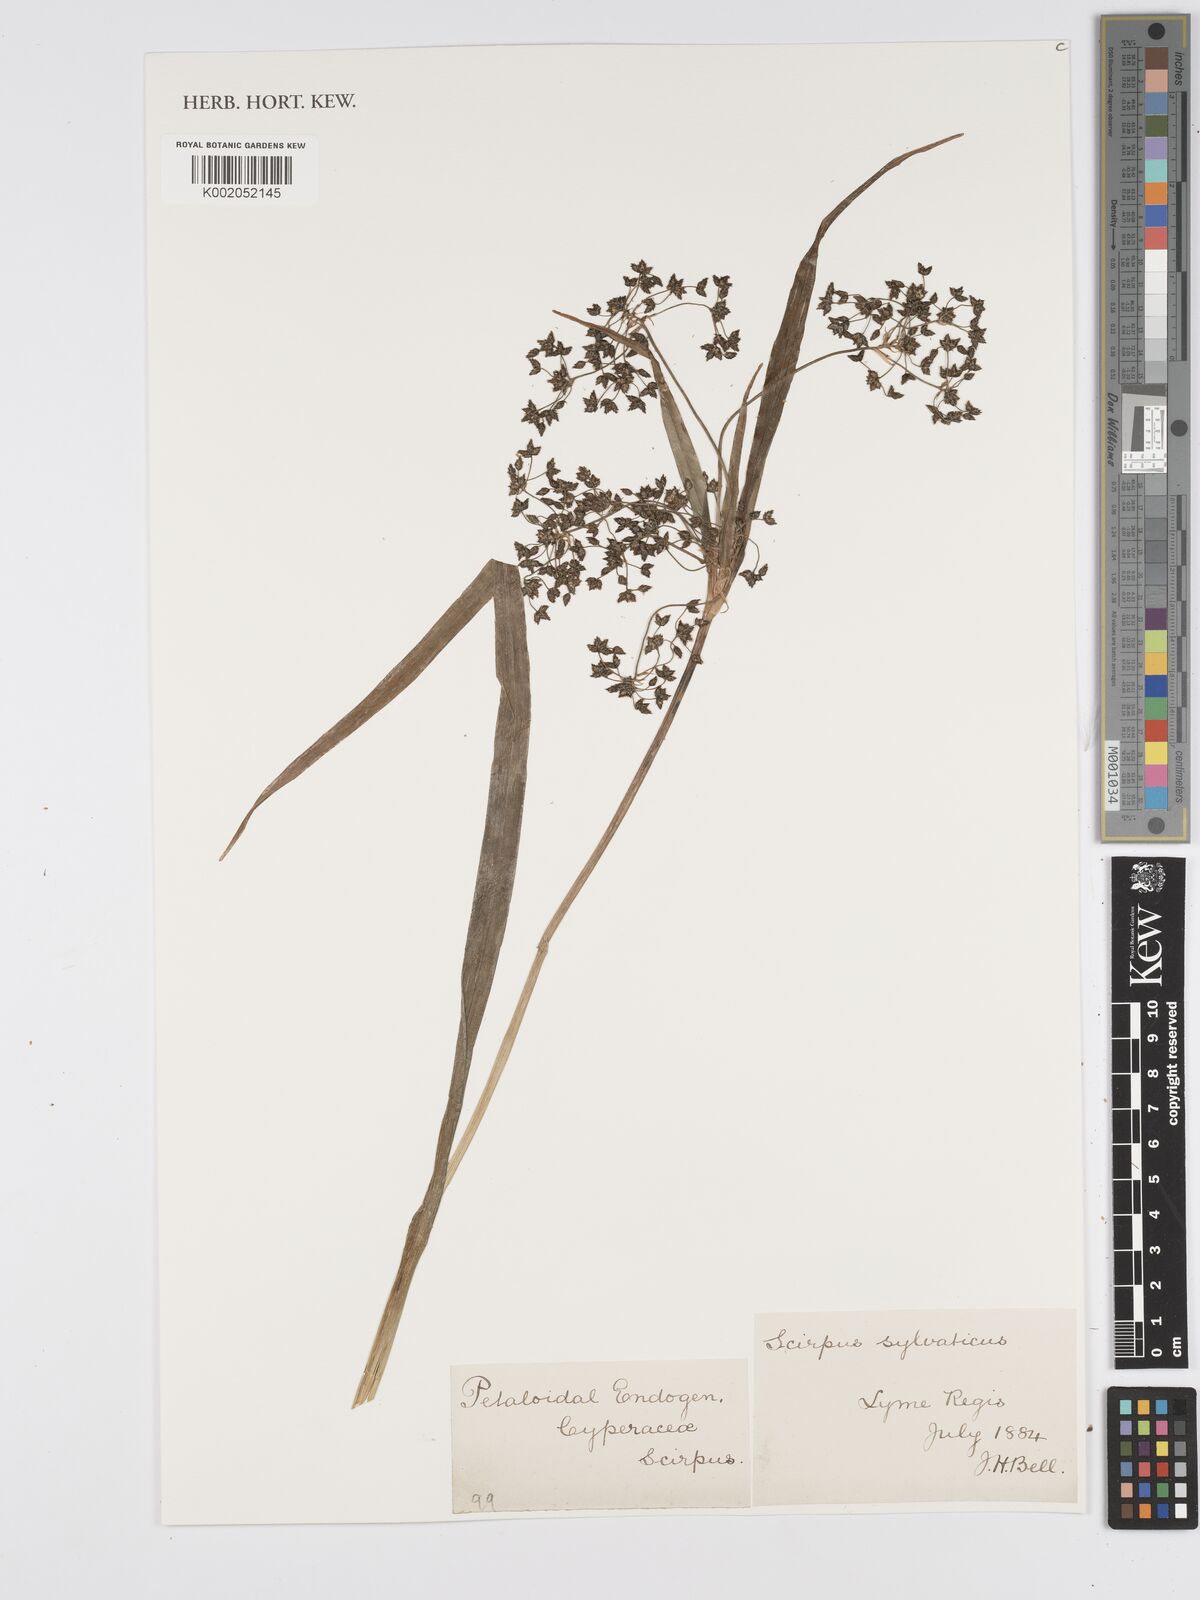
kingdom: Plantae
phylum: Tracheophyta
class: Liliopsida
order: Poales
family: Cyperaceae
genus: Scirpus
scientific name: Scirpus sylvaticus
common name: Wood club-rush
